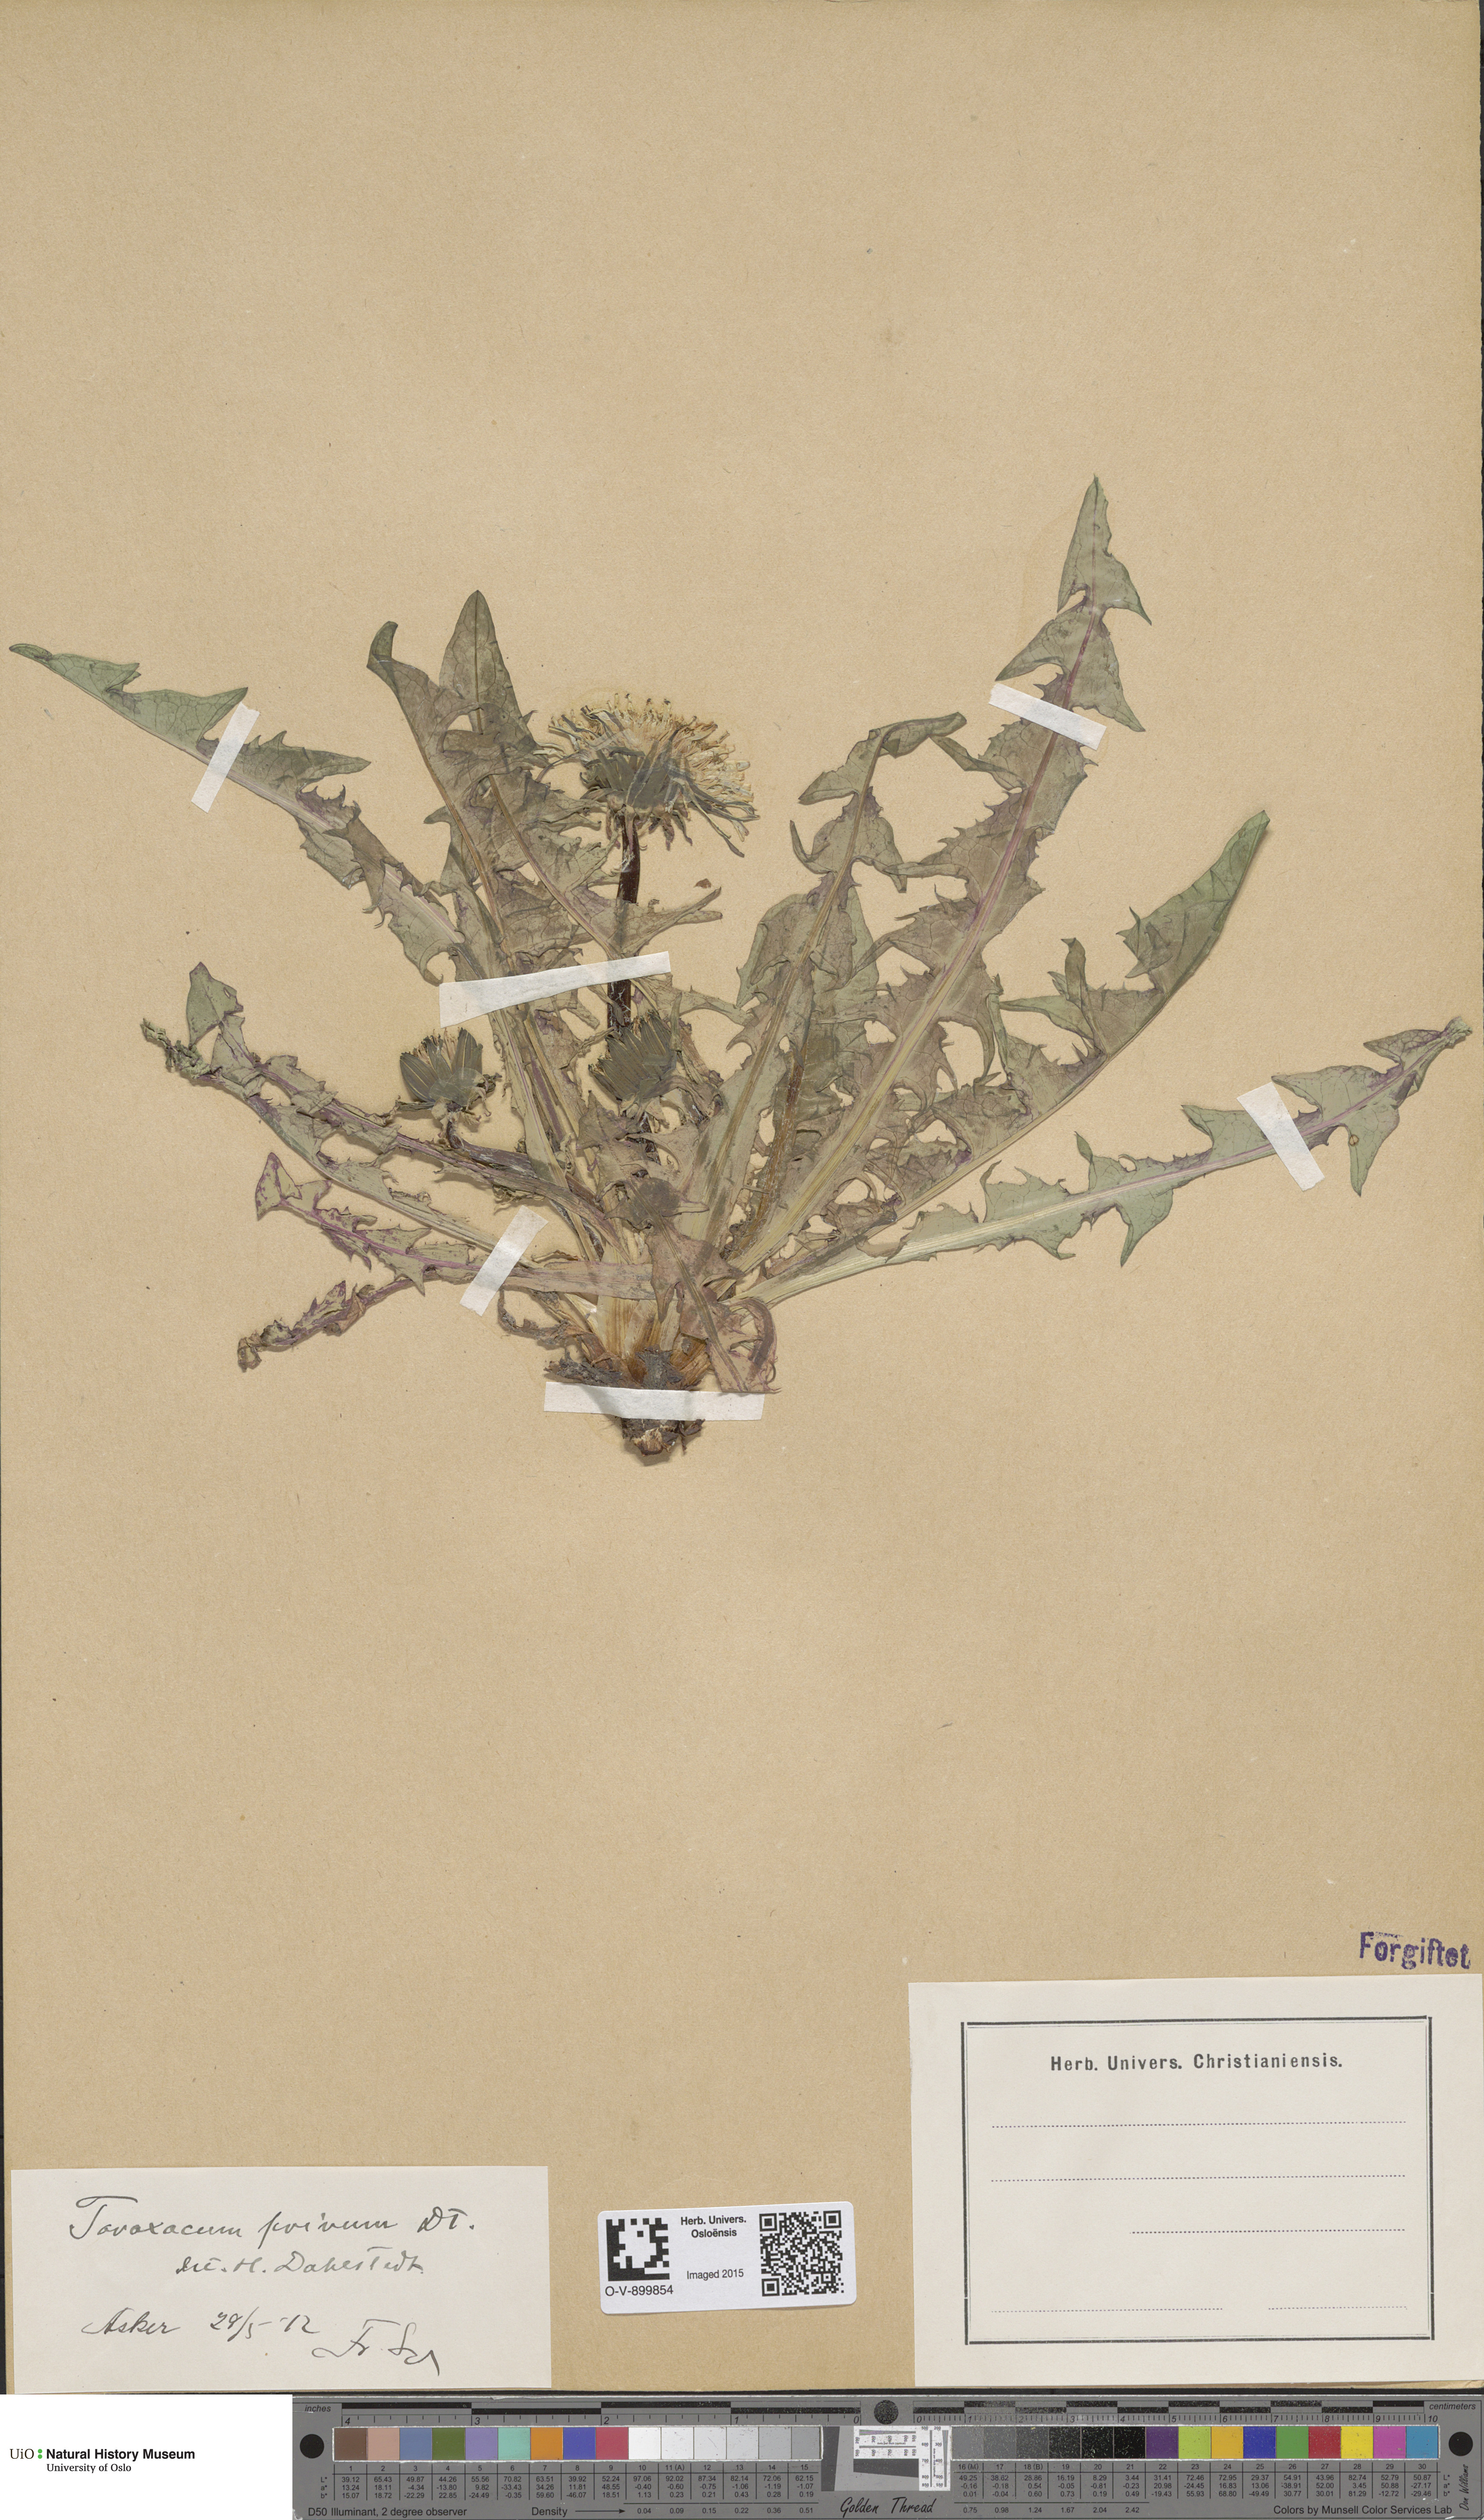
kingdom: Plantae
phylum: Tracheophyta
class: Magnoliopsida
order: Asterales
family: Asteraceae
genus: Taraxacum
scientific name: Taraxacum privum
